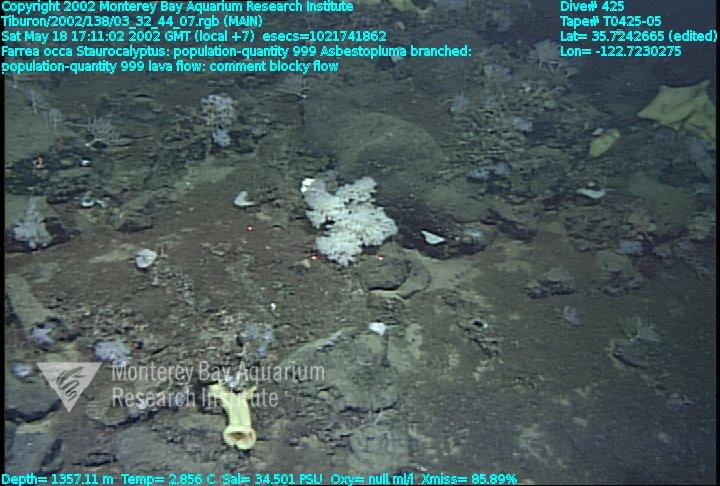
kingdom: Animalia
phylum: Porifera
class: Demospongiae
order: Poecilosclerida
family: Cladorhizidae
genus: Asbestopluma
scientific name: Asbestopluma monticola
